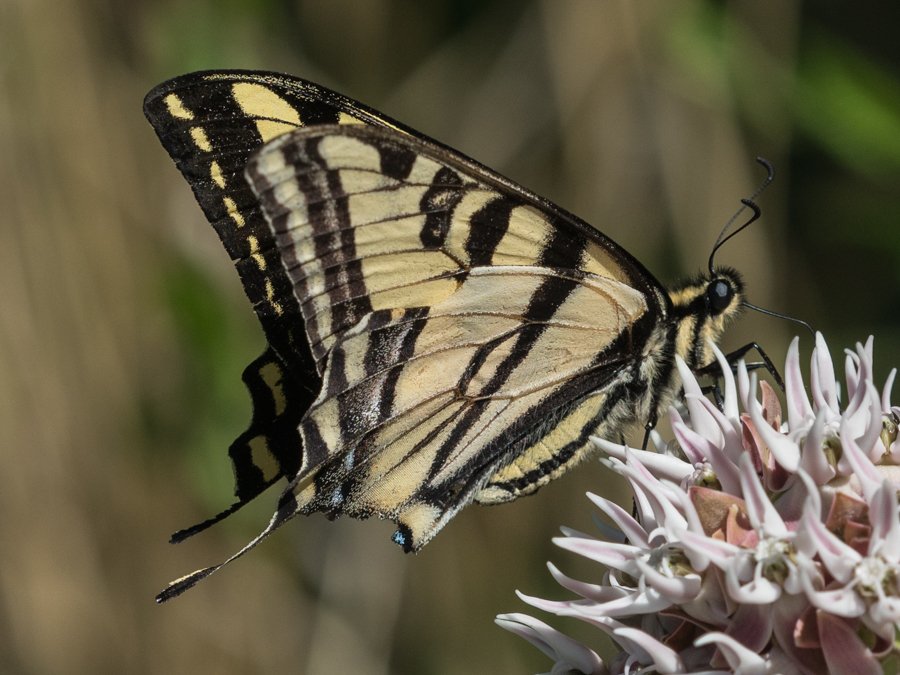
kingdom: Animalia
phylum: Arthropoda
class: Insecta
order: Lepidoptera
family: Papilionidae
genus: Pterourus
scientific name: Pterourus rutulus
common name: Western Tiger Swallowtail
